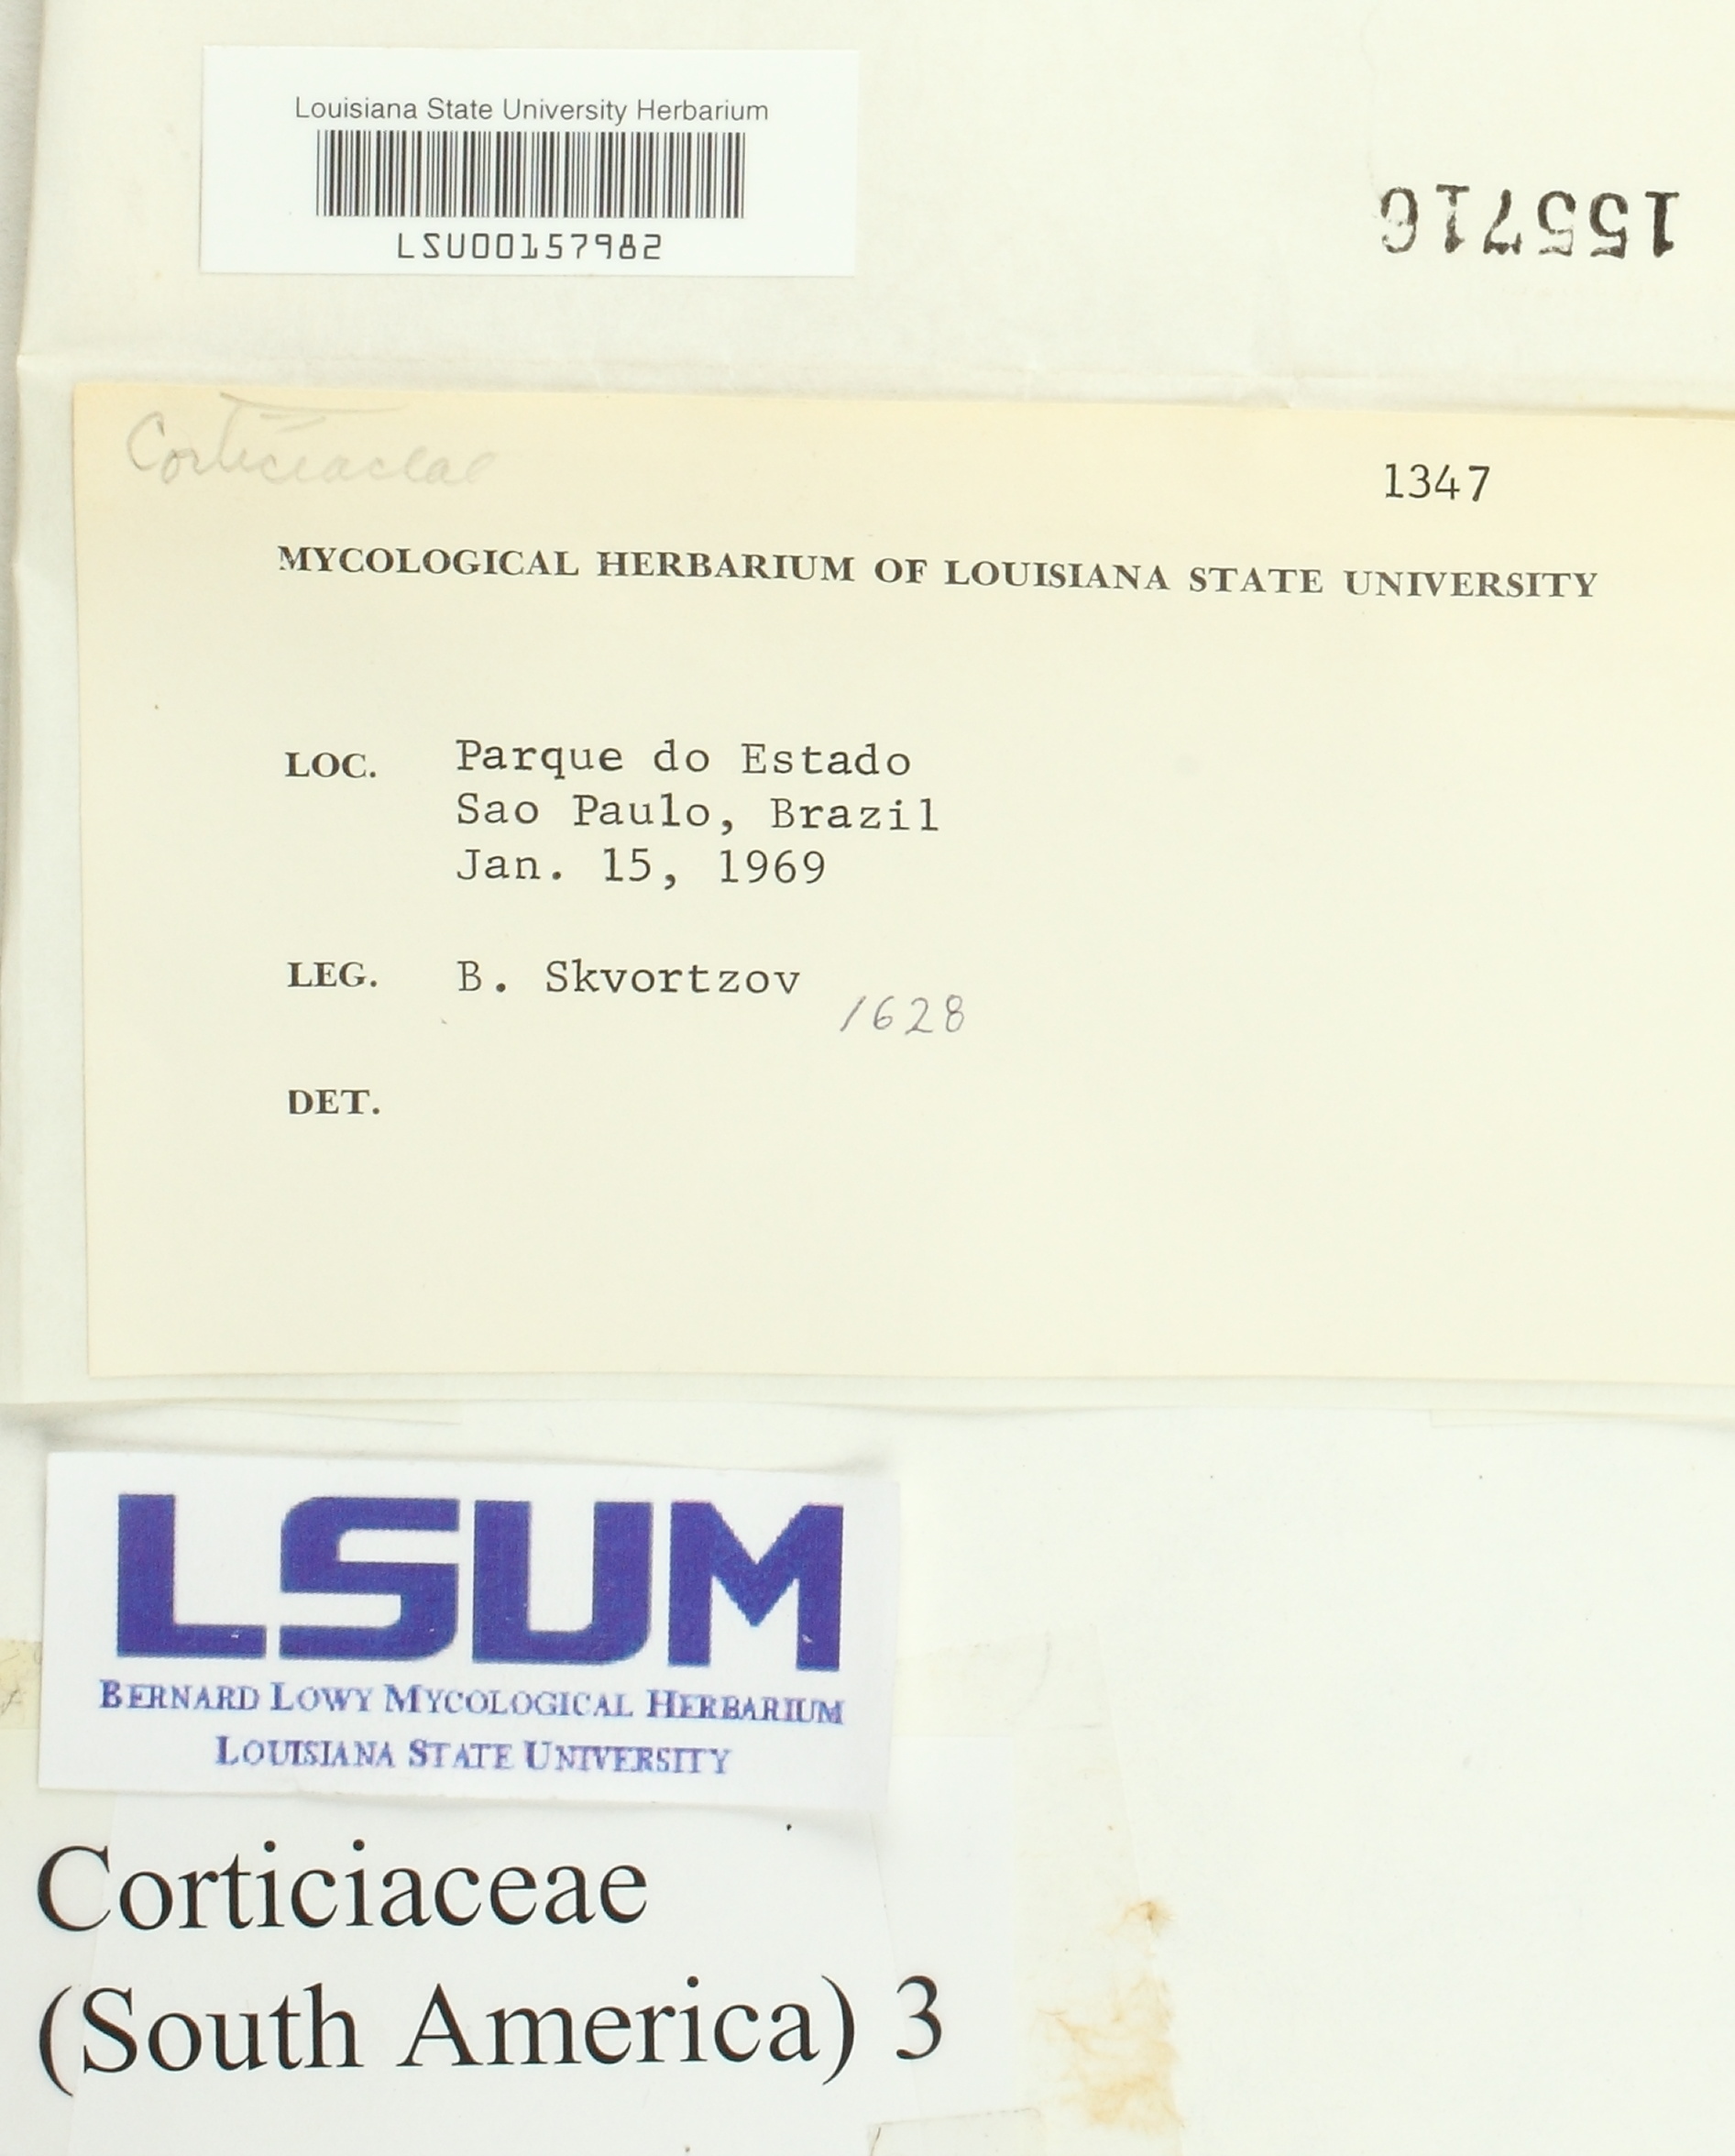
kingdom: Fungi
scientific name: Fungi
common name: Fungi
